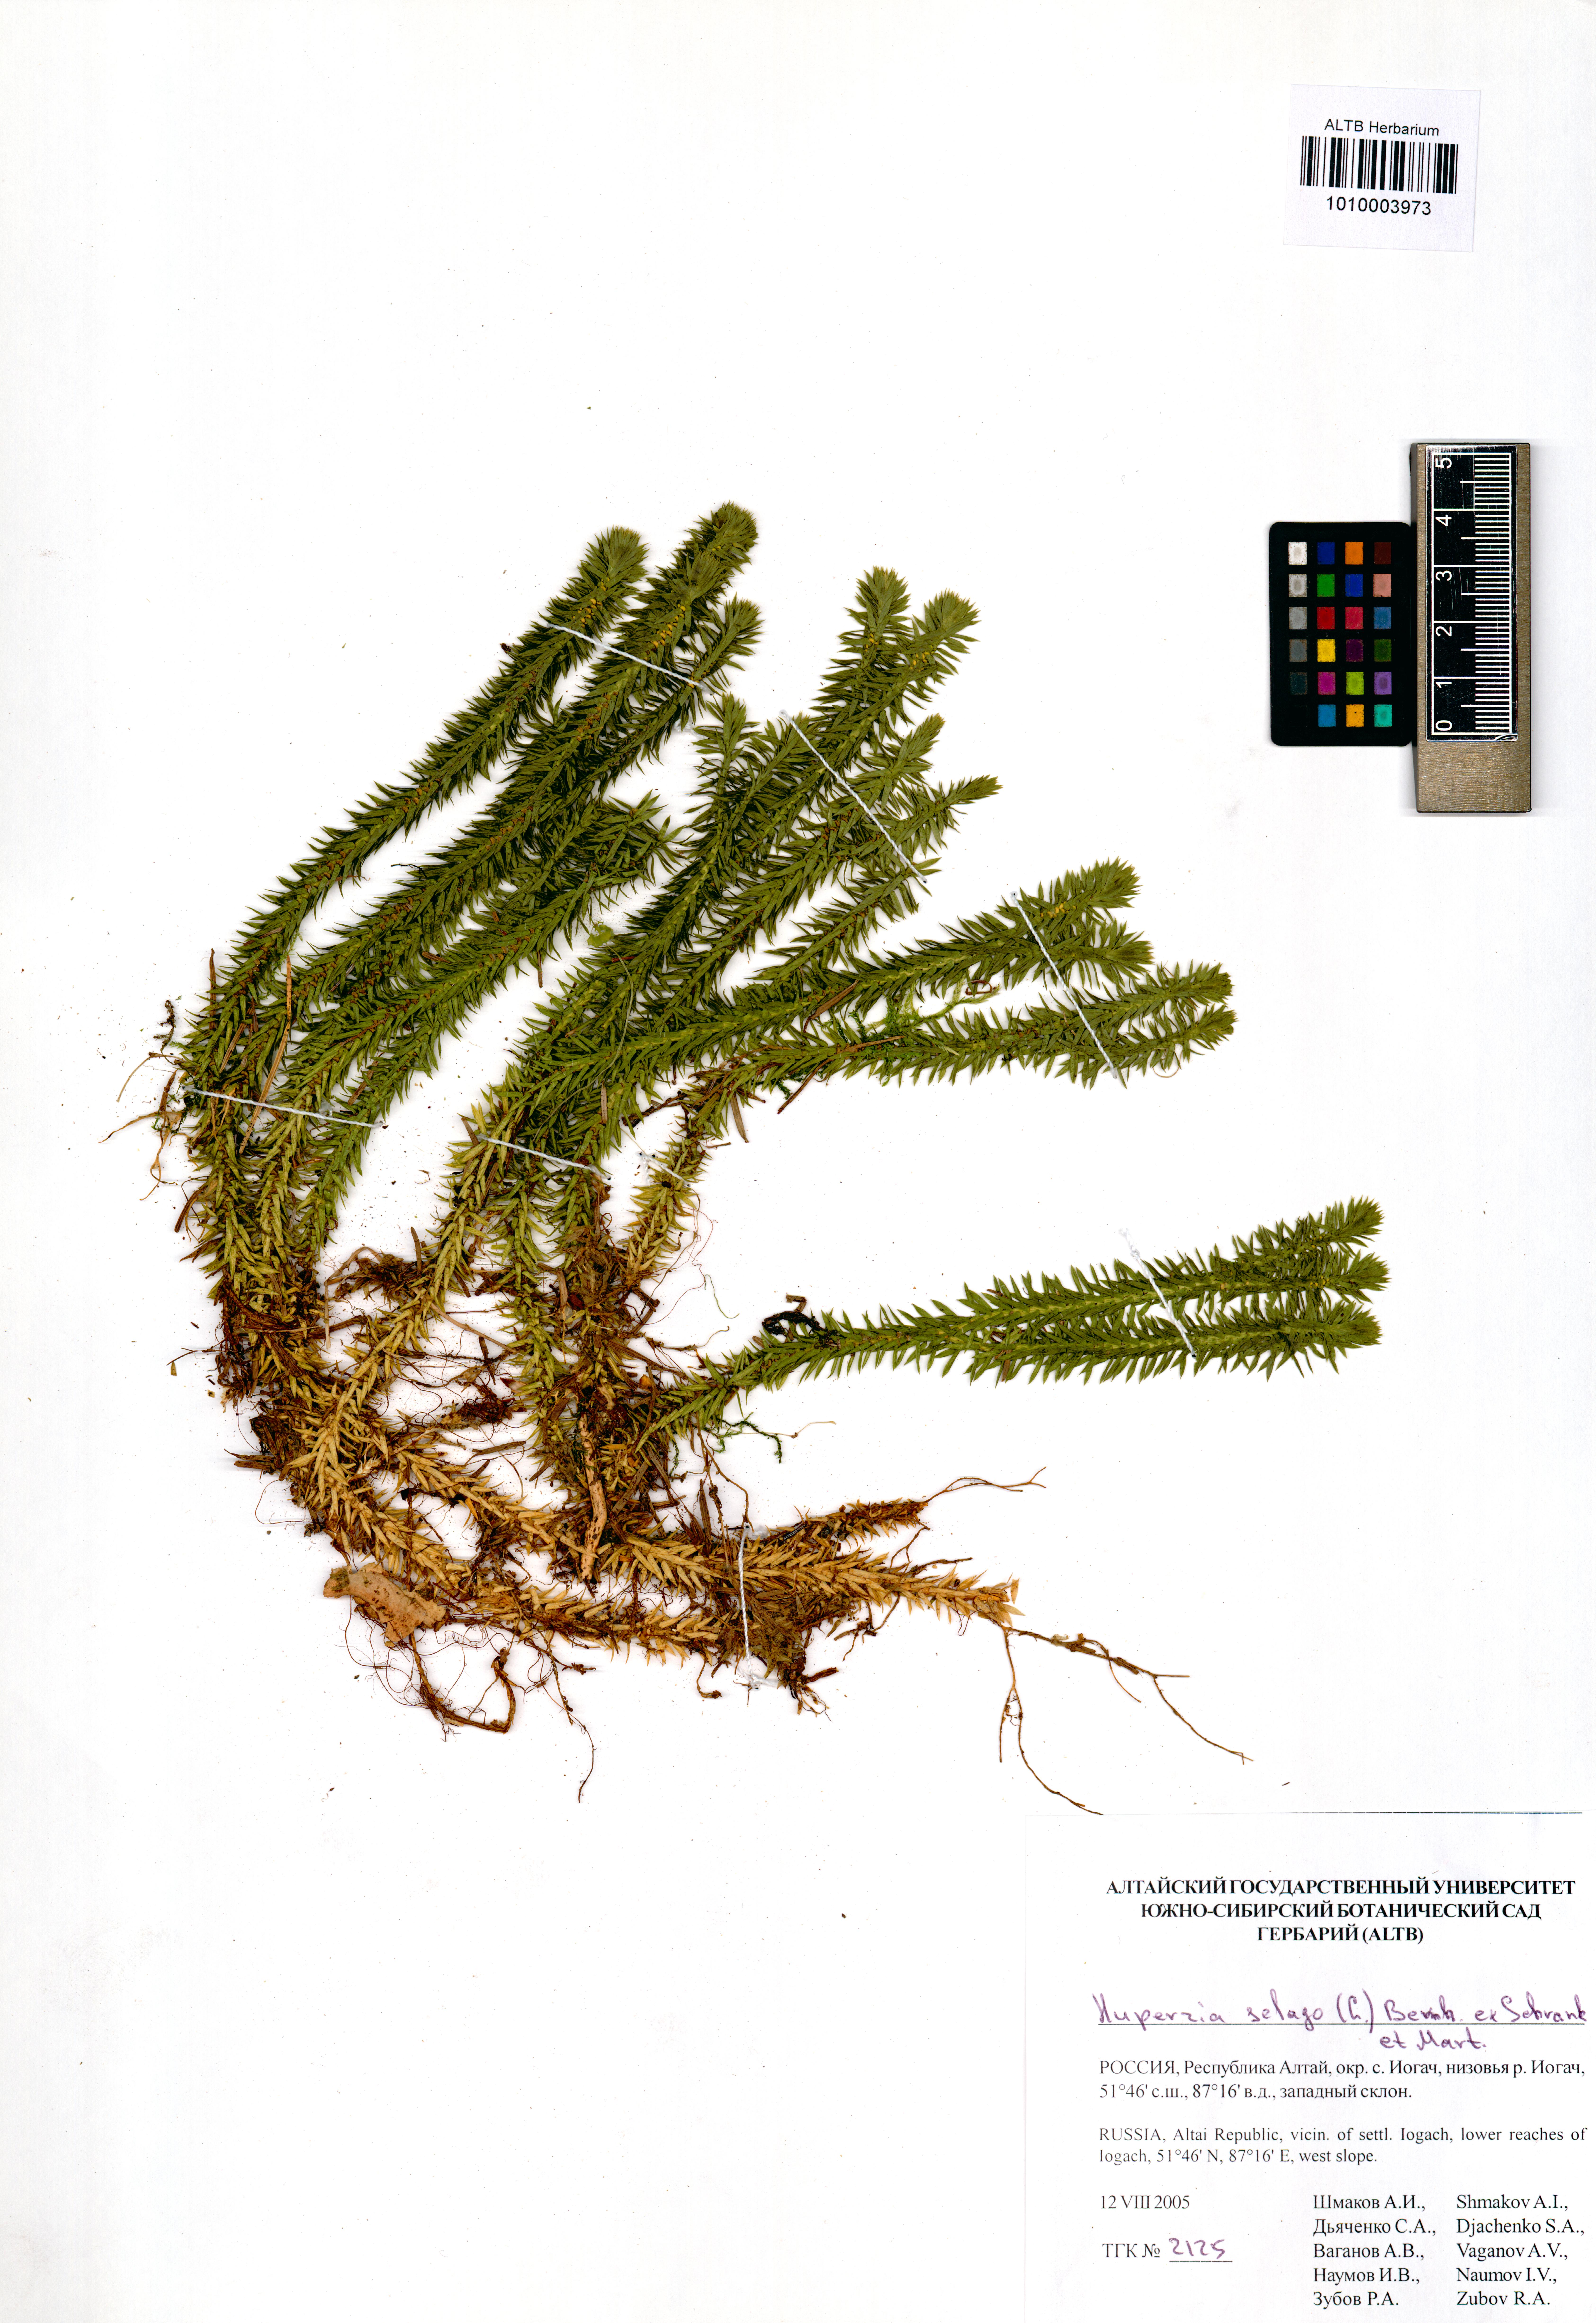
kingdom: Plantae
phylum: Tracheophyta
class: Lycopodiopsida
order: Lycopodiales
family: Lycopodiaceae
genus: Huperzia
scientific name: Huperzia selago
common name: Northern firmoss
